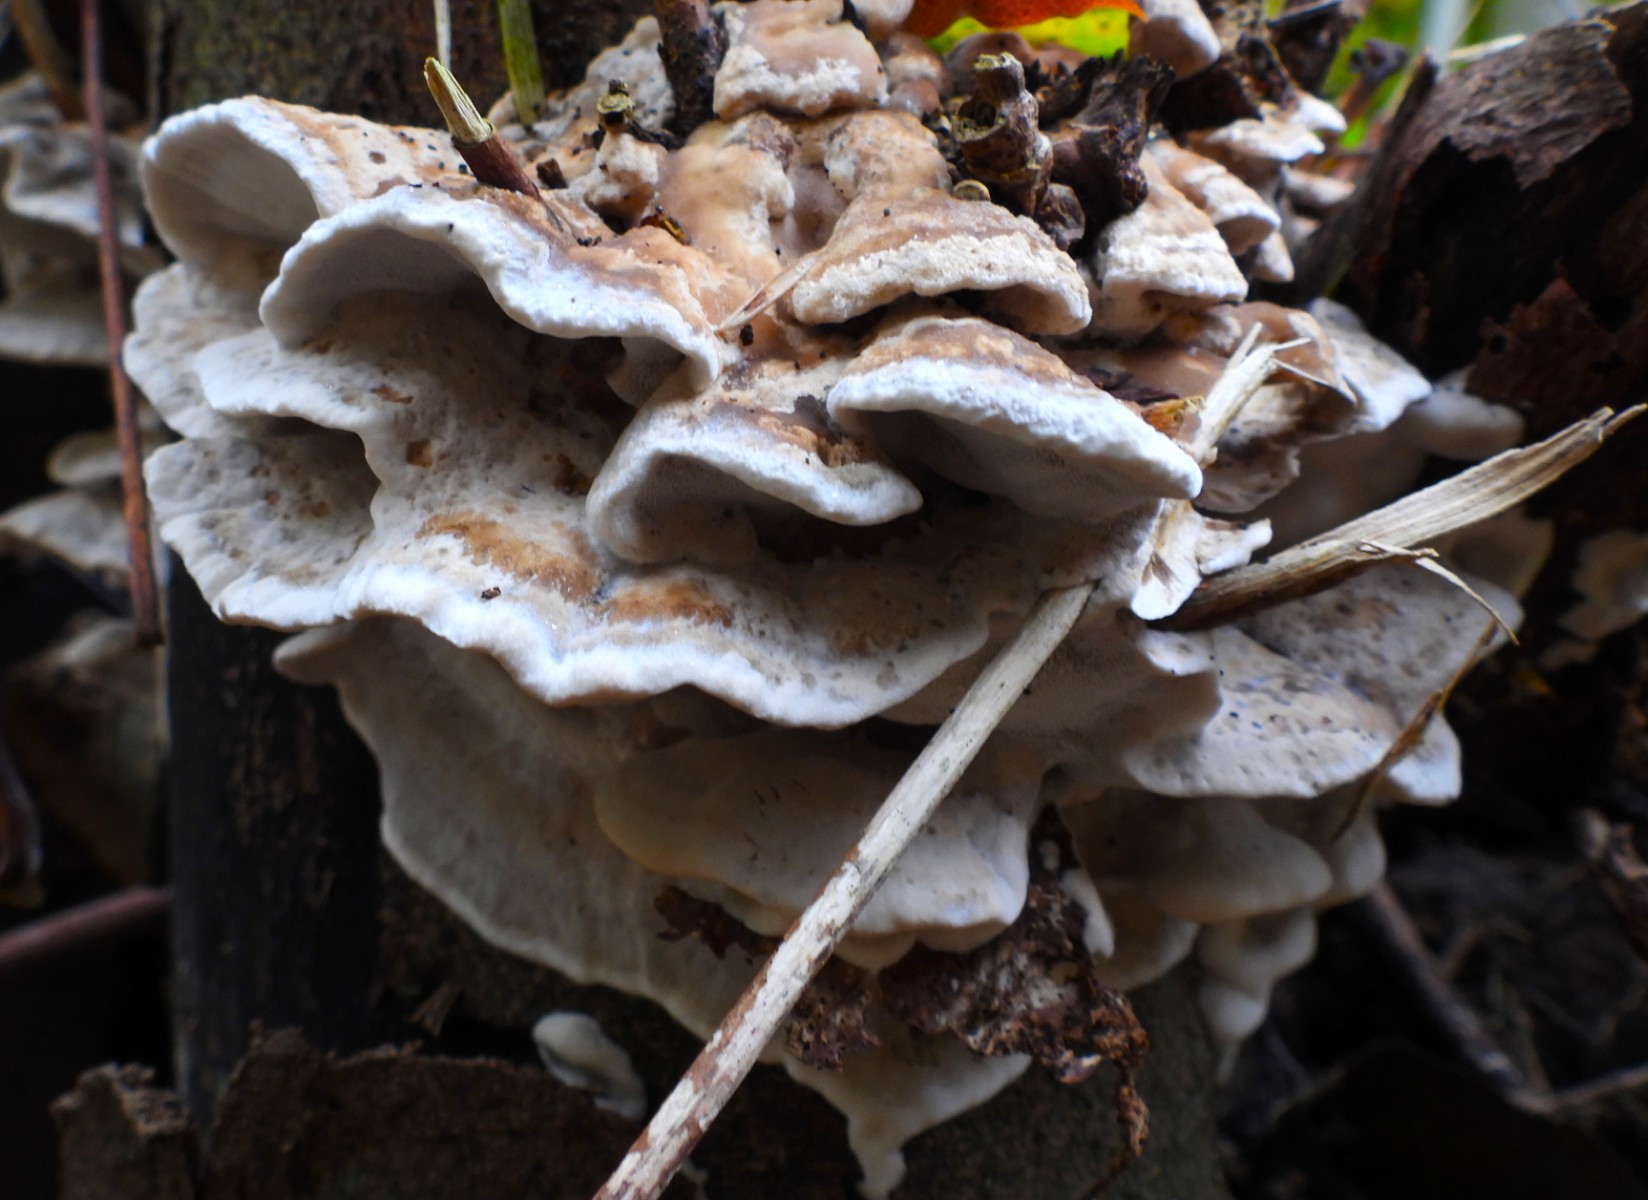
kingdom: Fungi
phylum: Basidiomycota
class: Agaricomycetes
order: Polyporales
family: Phanerochaetaceae
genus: Bjerkandera
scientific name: Bjerkandera fumosa
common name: grågul sodporesvamp
